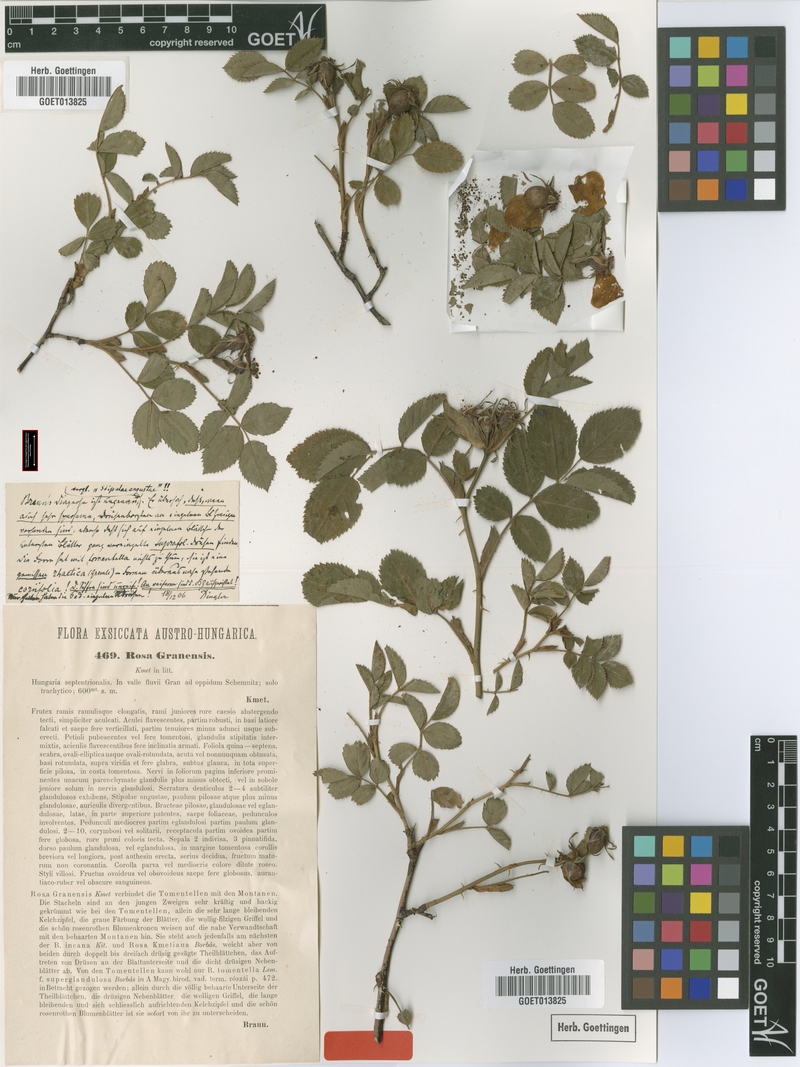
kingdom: Plantae
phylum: Tracheophyta
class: Magnoliopsida
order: Rosales
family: Rosaceae
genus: Rosa
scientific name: Rosa balsamica
